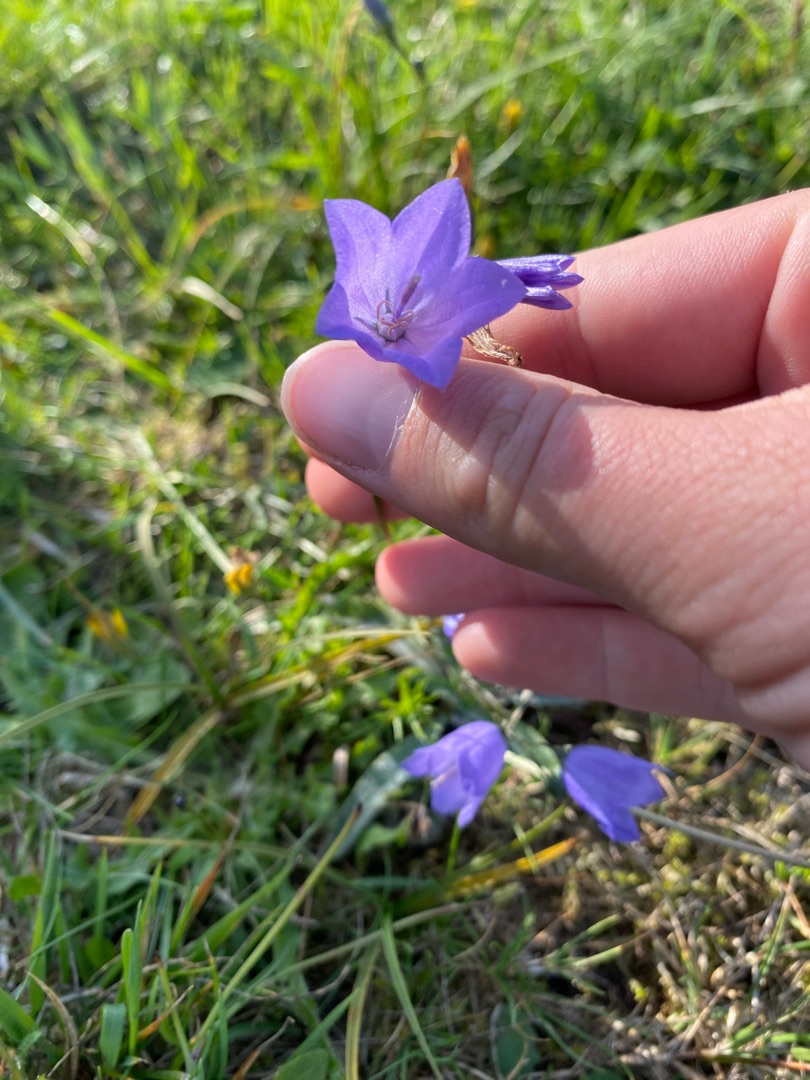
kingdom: Plantae
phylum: Tracheophyta
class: Magnoliopsida
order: Asterales
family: Campanulaceae
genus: Campanula
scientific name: Campanula rotundifolia
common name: Liden klokke
